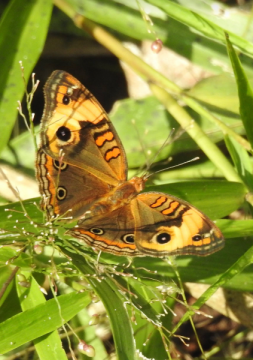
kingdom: Animalia
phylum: Arthropoda
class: Insecta
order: Lepidoptera
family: Nymphalidae
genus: Junonia
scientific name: Junonia lavinia
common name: Tropical Buckeye
